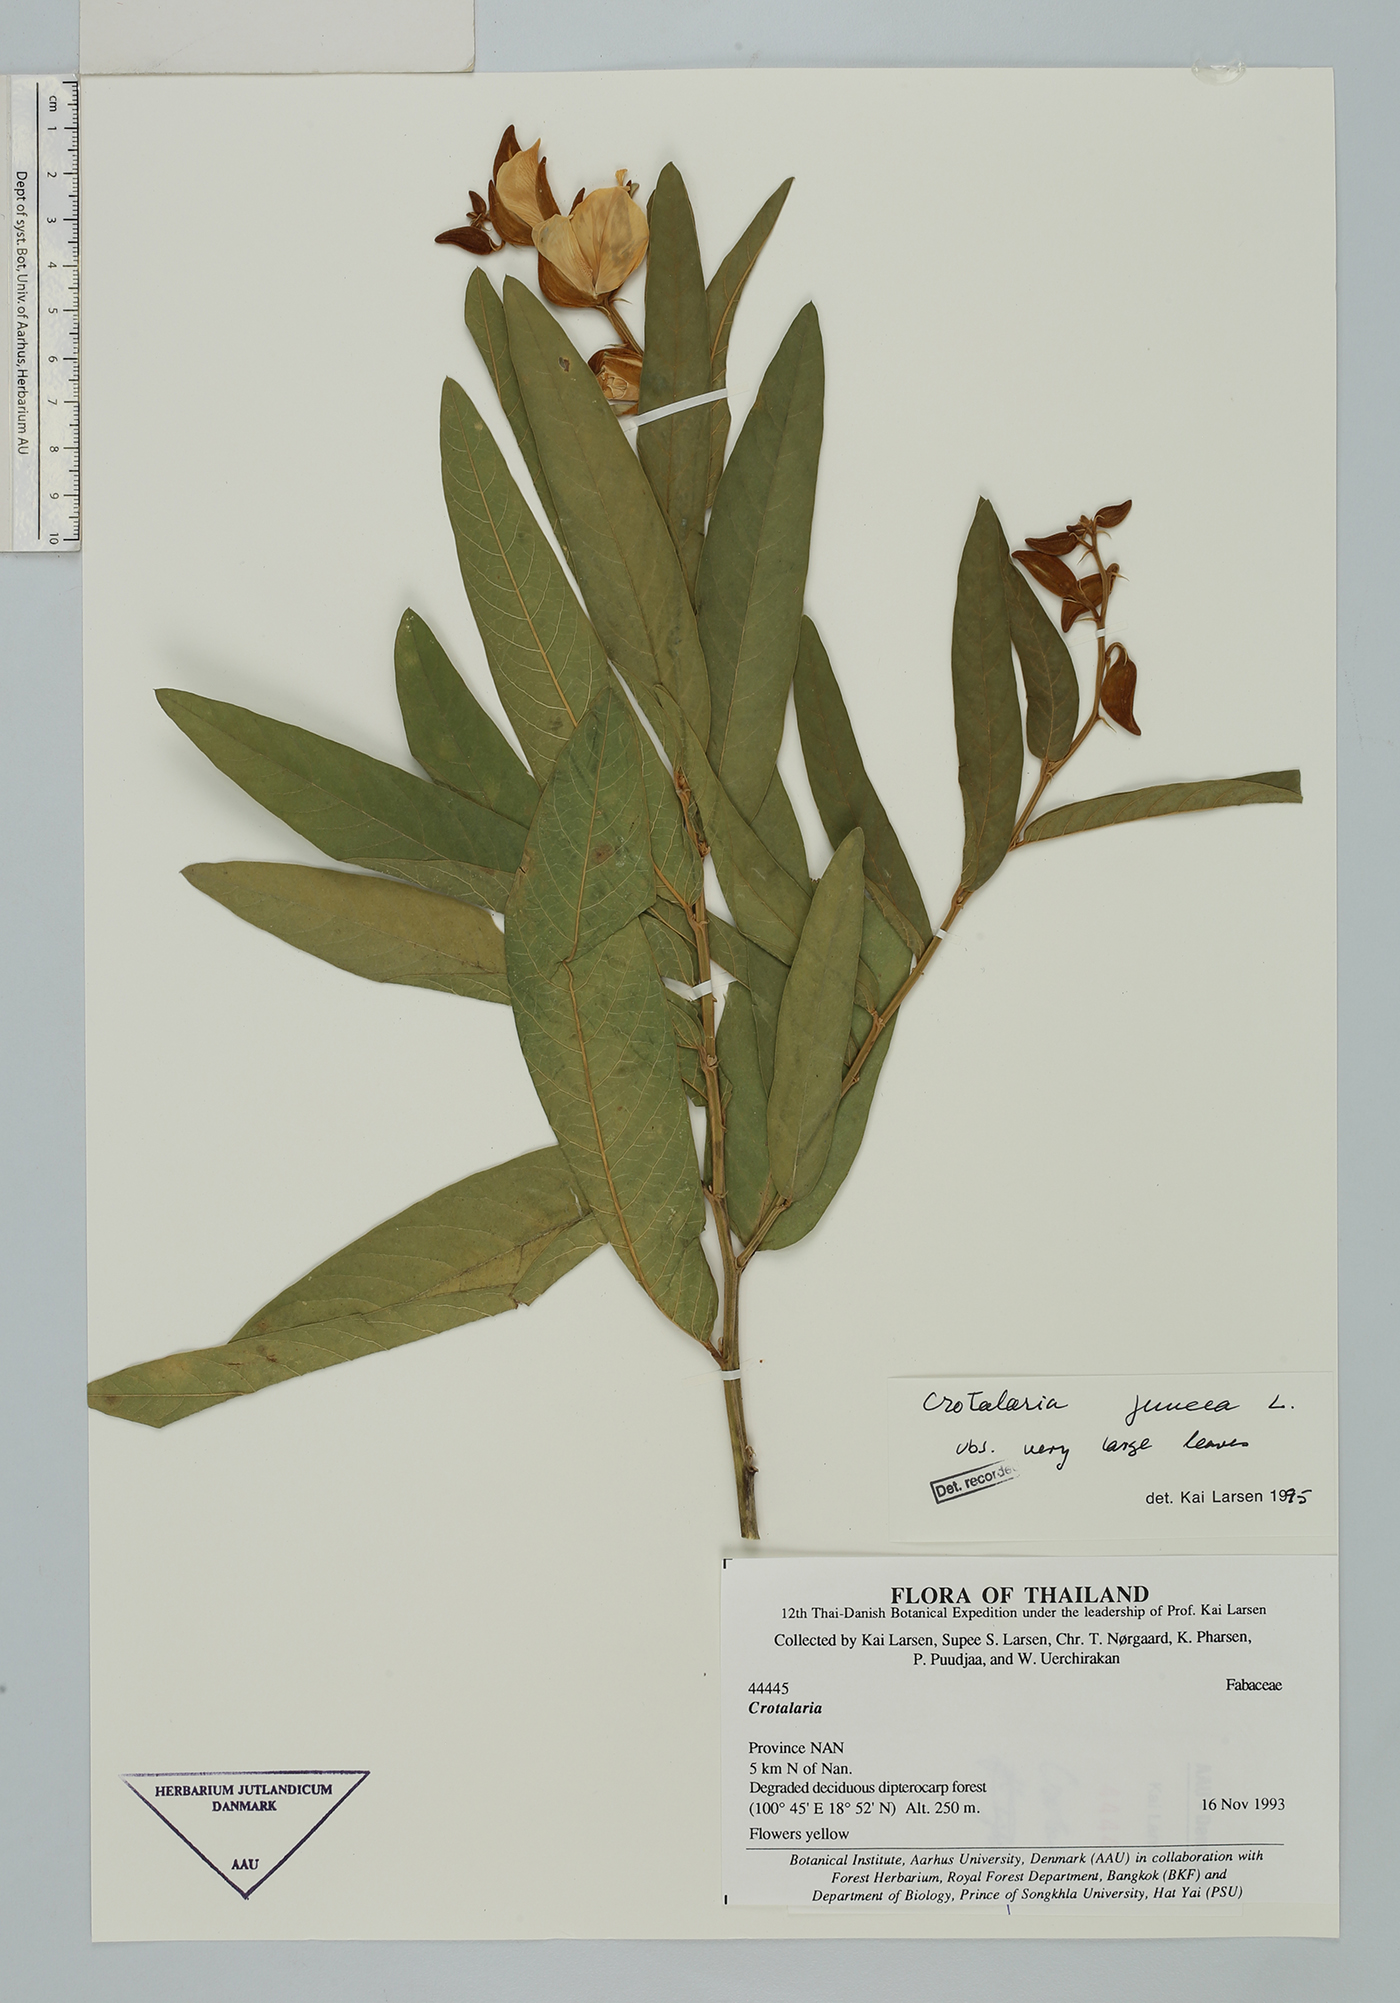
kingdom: Plantae
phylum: Tracheophyta
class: Magnoliopsida
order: Fabales
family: Fabaceae
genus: Crotalaria
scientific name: Crotalaria tetragona
